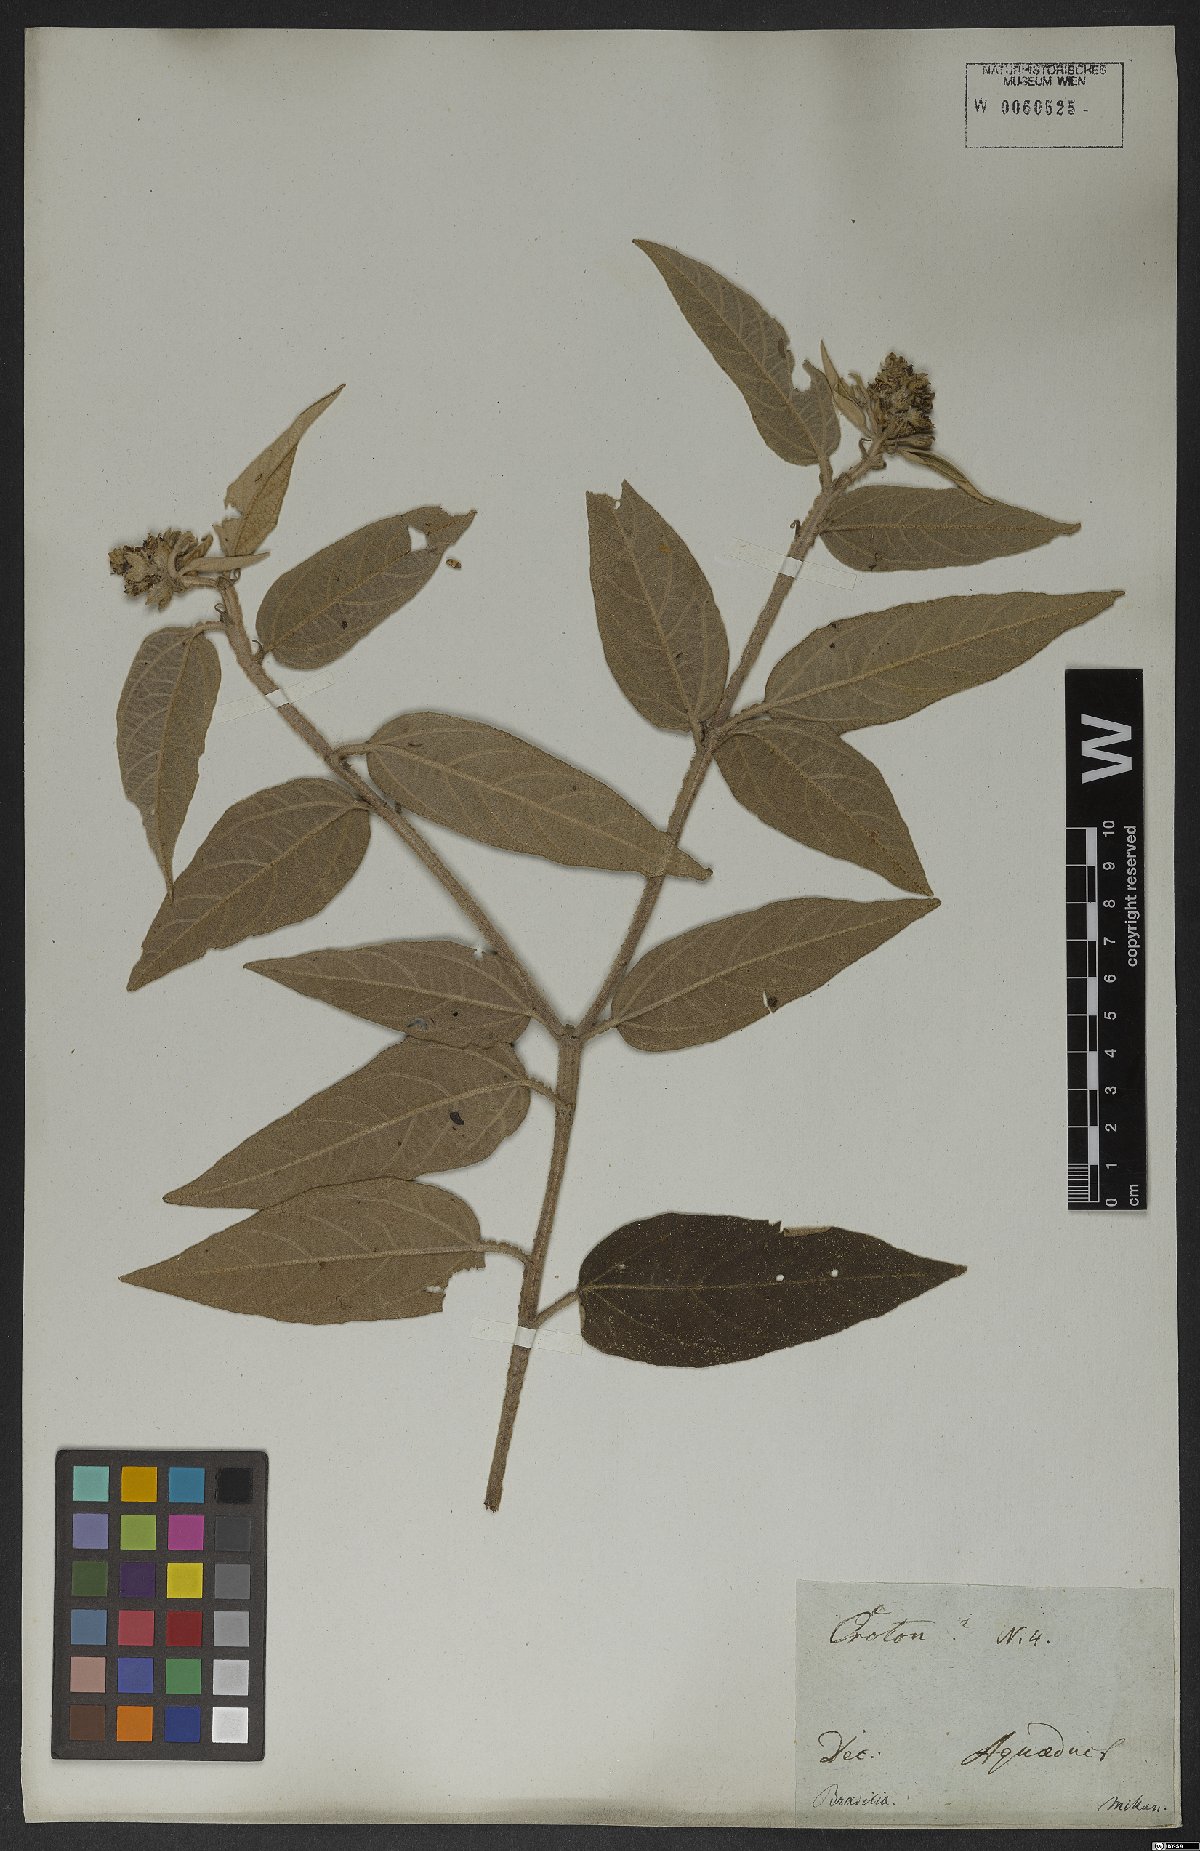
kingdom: Plantae
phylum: Tracheophyta
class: Magnoliopsida
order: Malpighiales
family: Euphorbiaceae
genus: Croton
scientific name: Croton gnaphaloides
